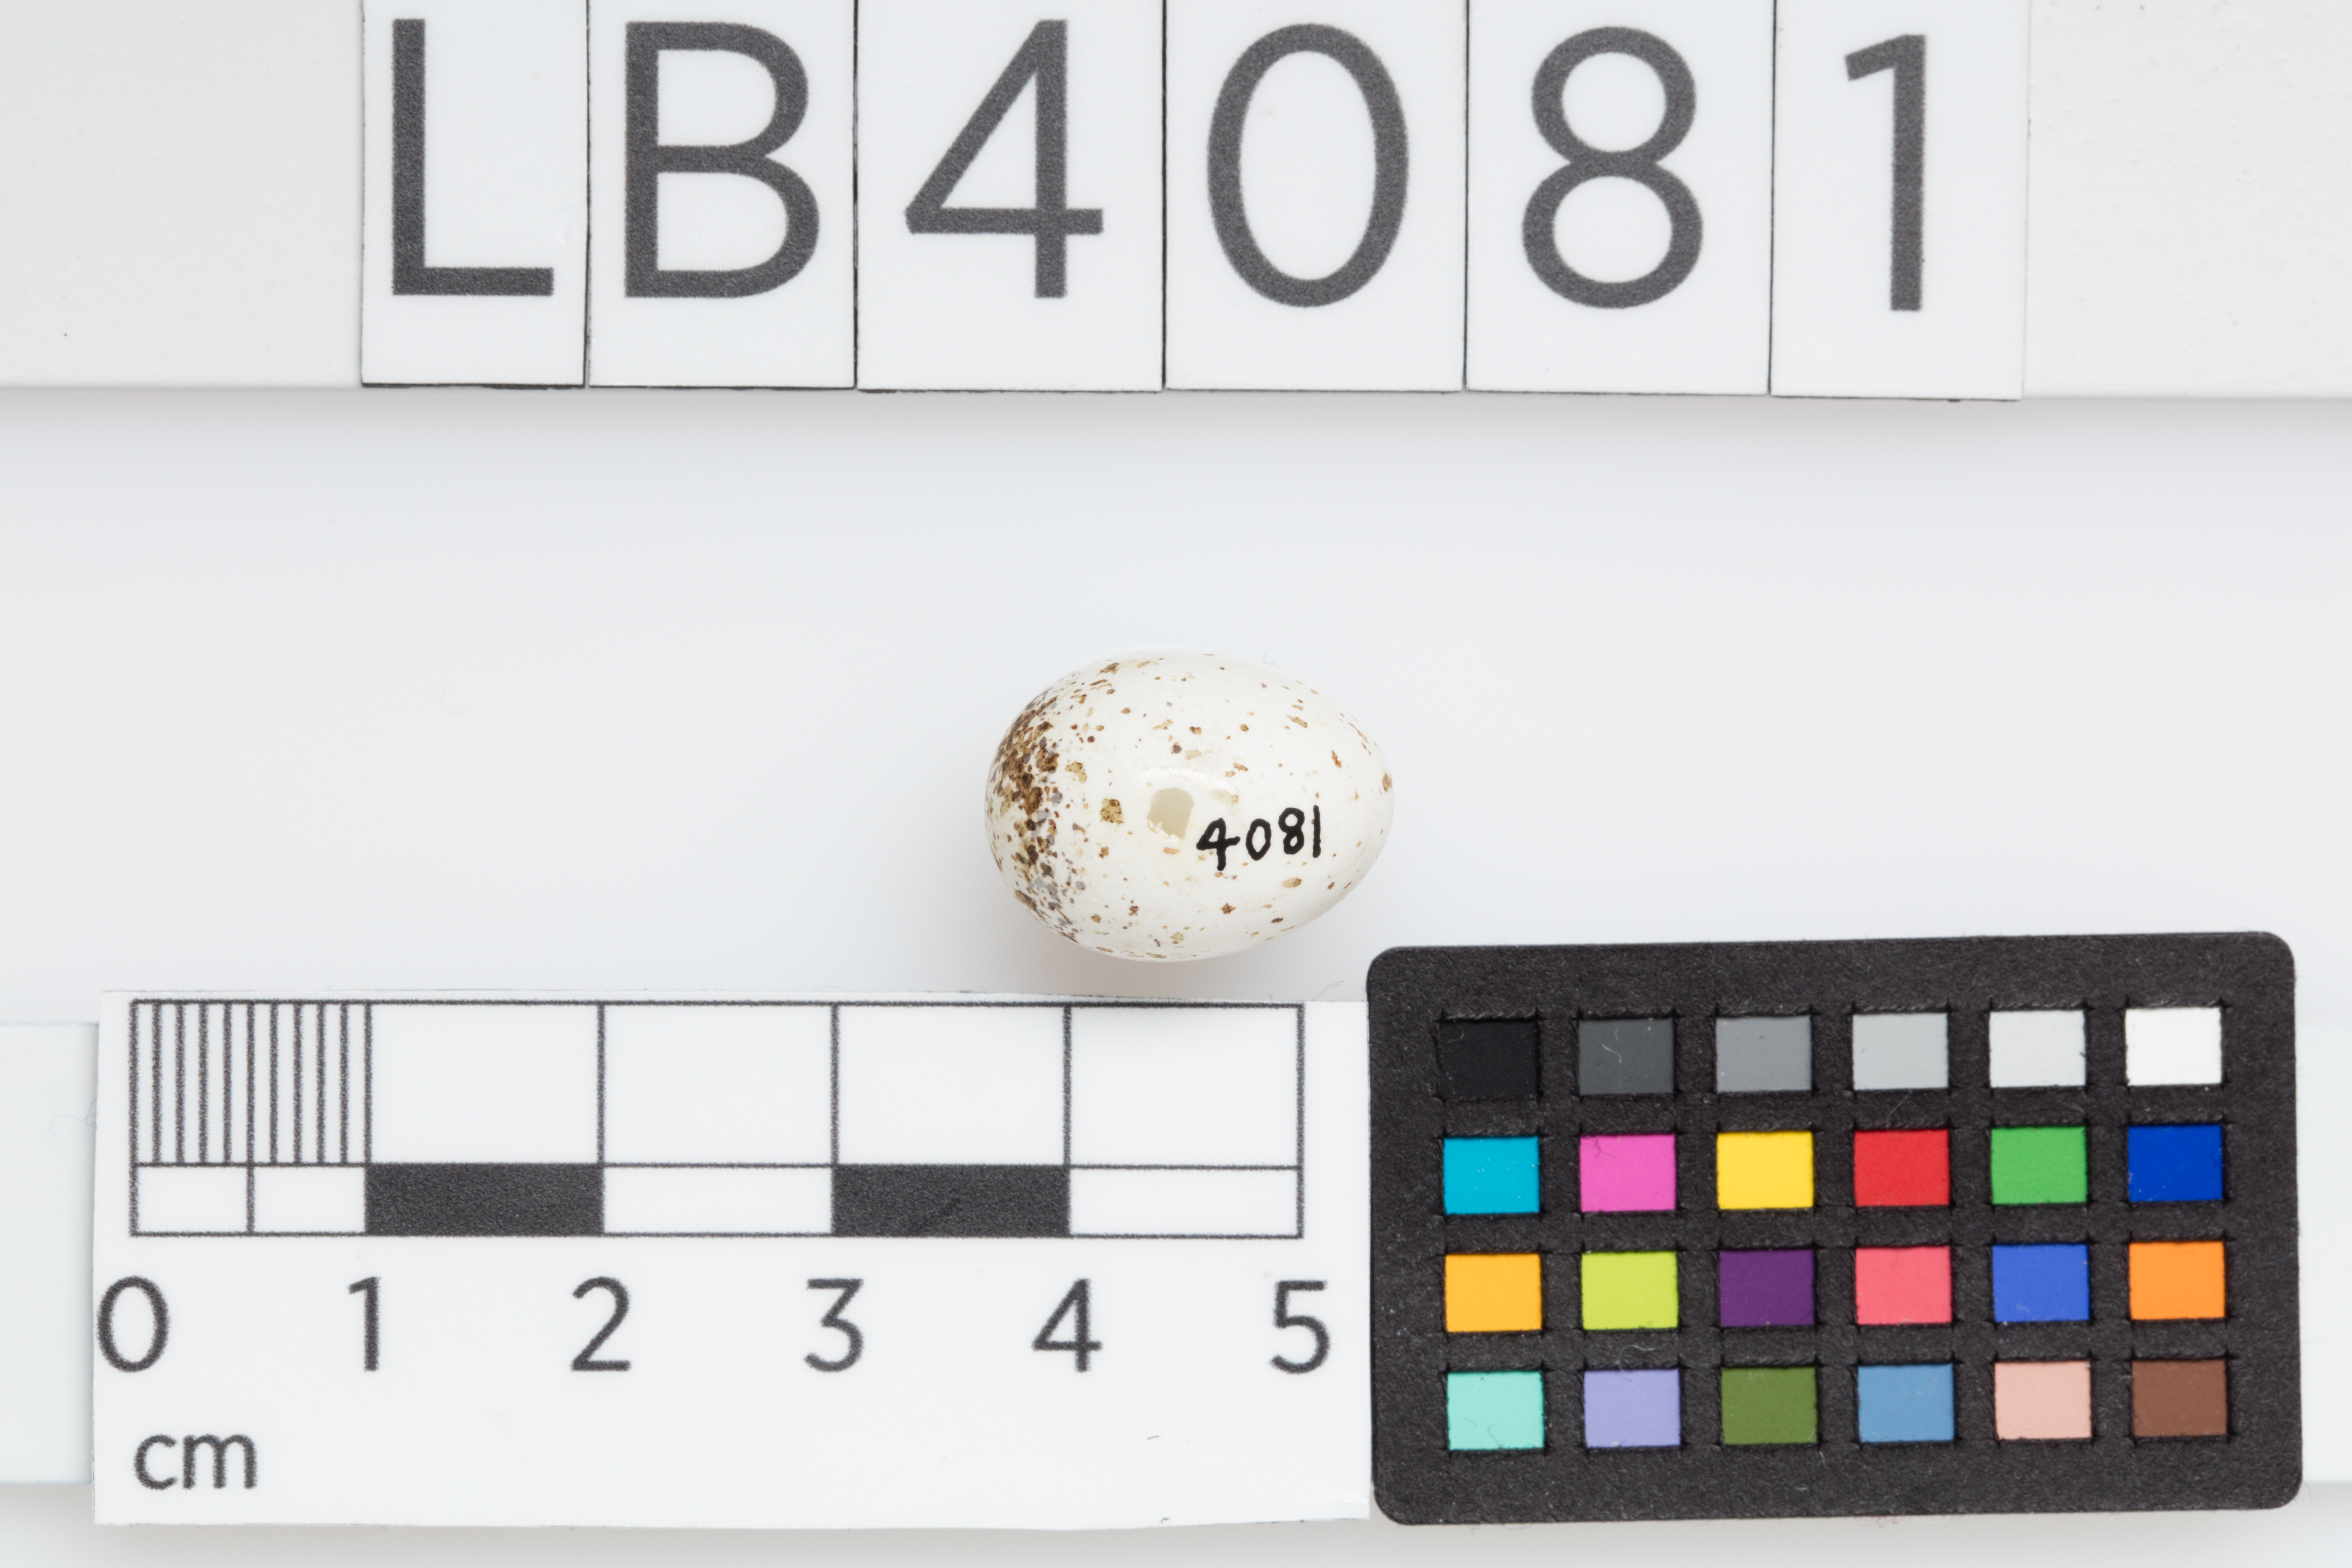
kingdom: Animalia
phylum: Chordata
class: Aves
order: Passeriformes
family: Hirundinidae
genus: Hirundo
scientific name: Hirundo neoxena
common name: Welcome swallow
